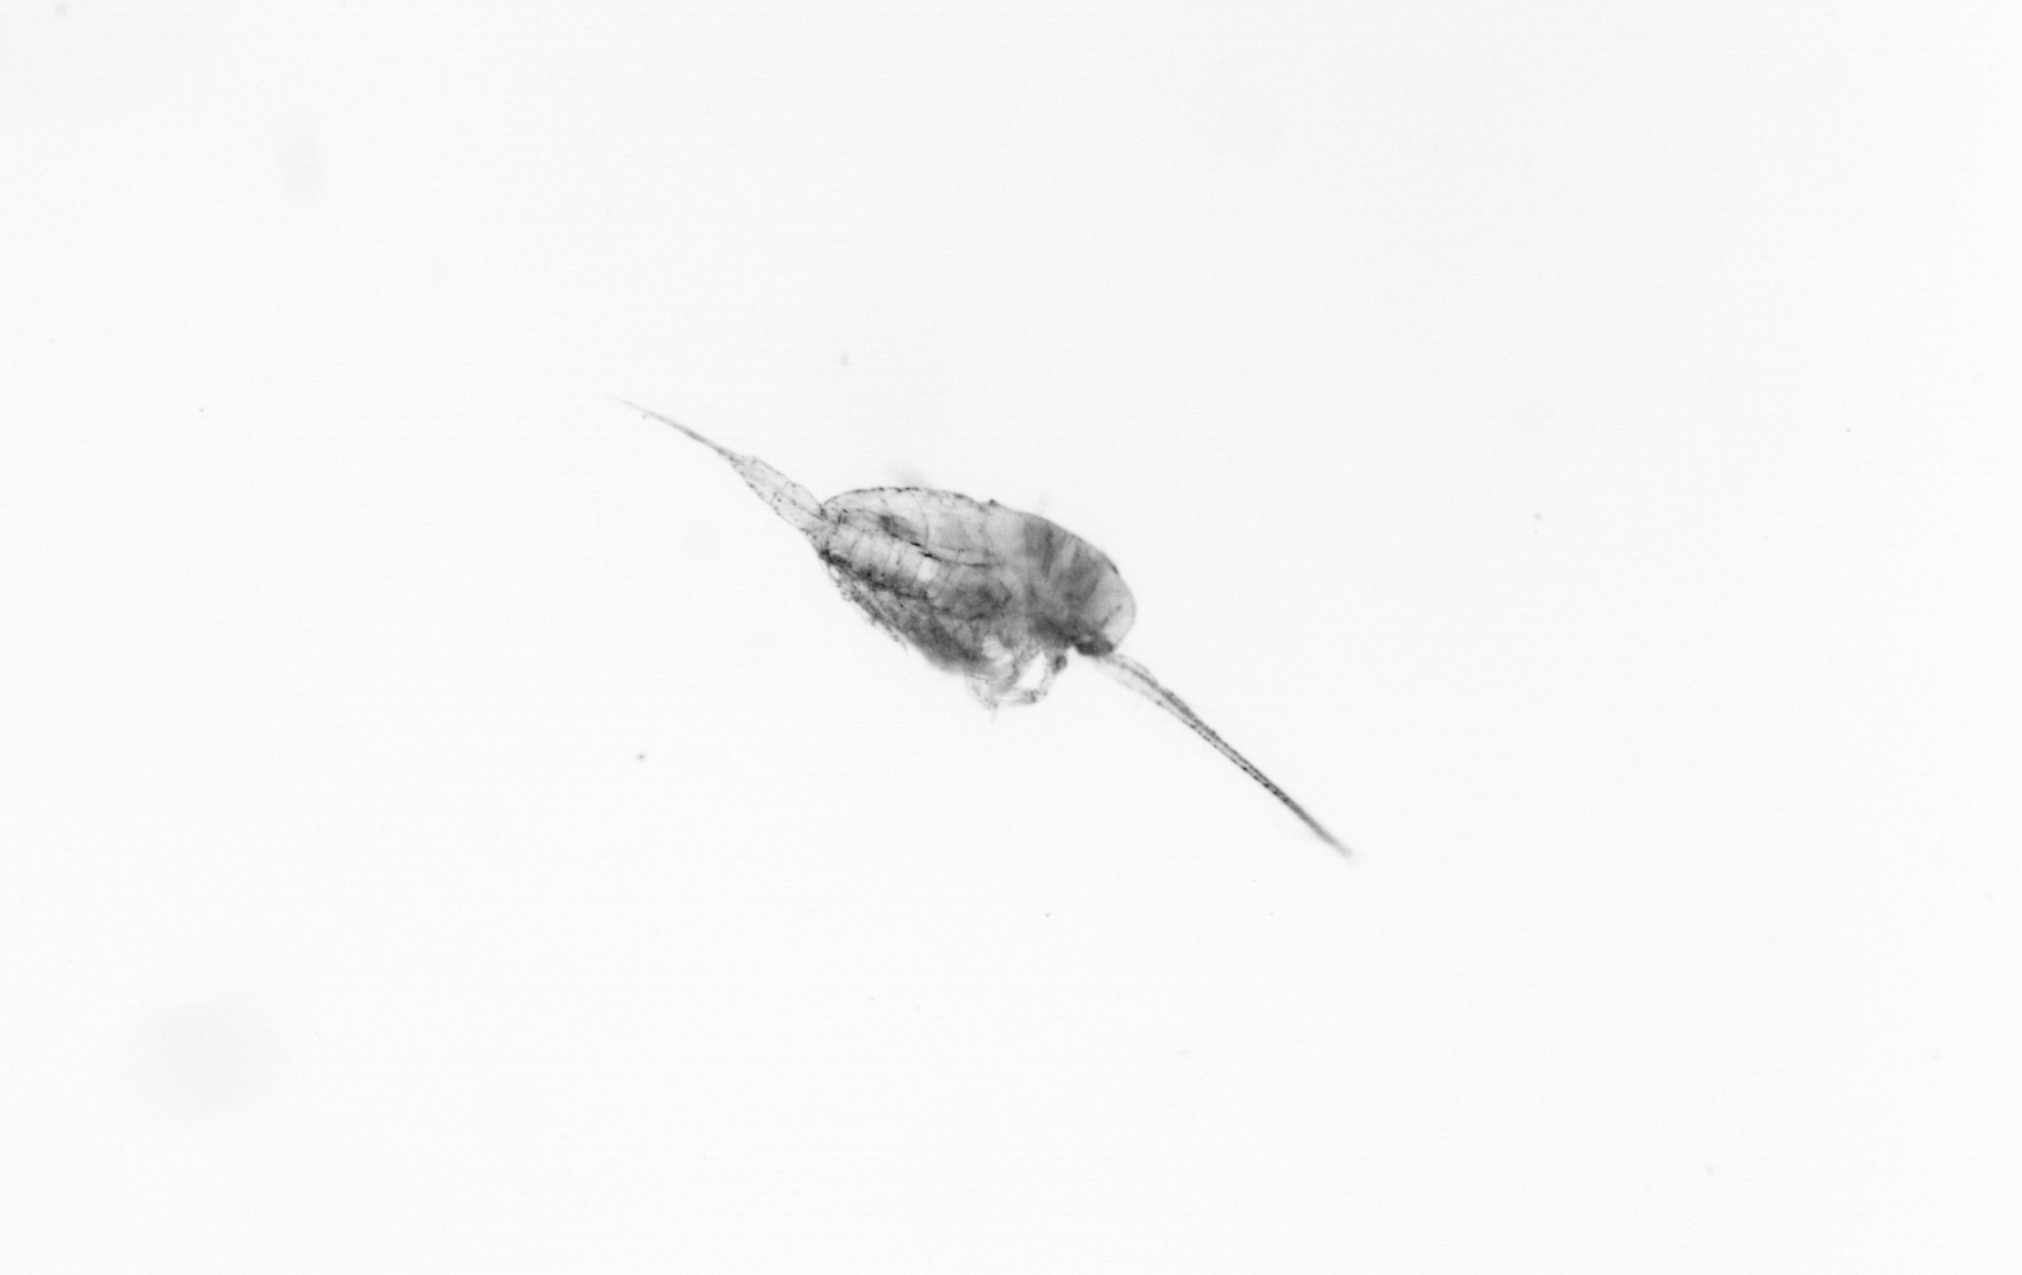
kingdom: Animalia
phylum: Arthropoda
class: Copepoda
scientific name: Copepoda
